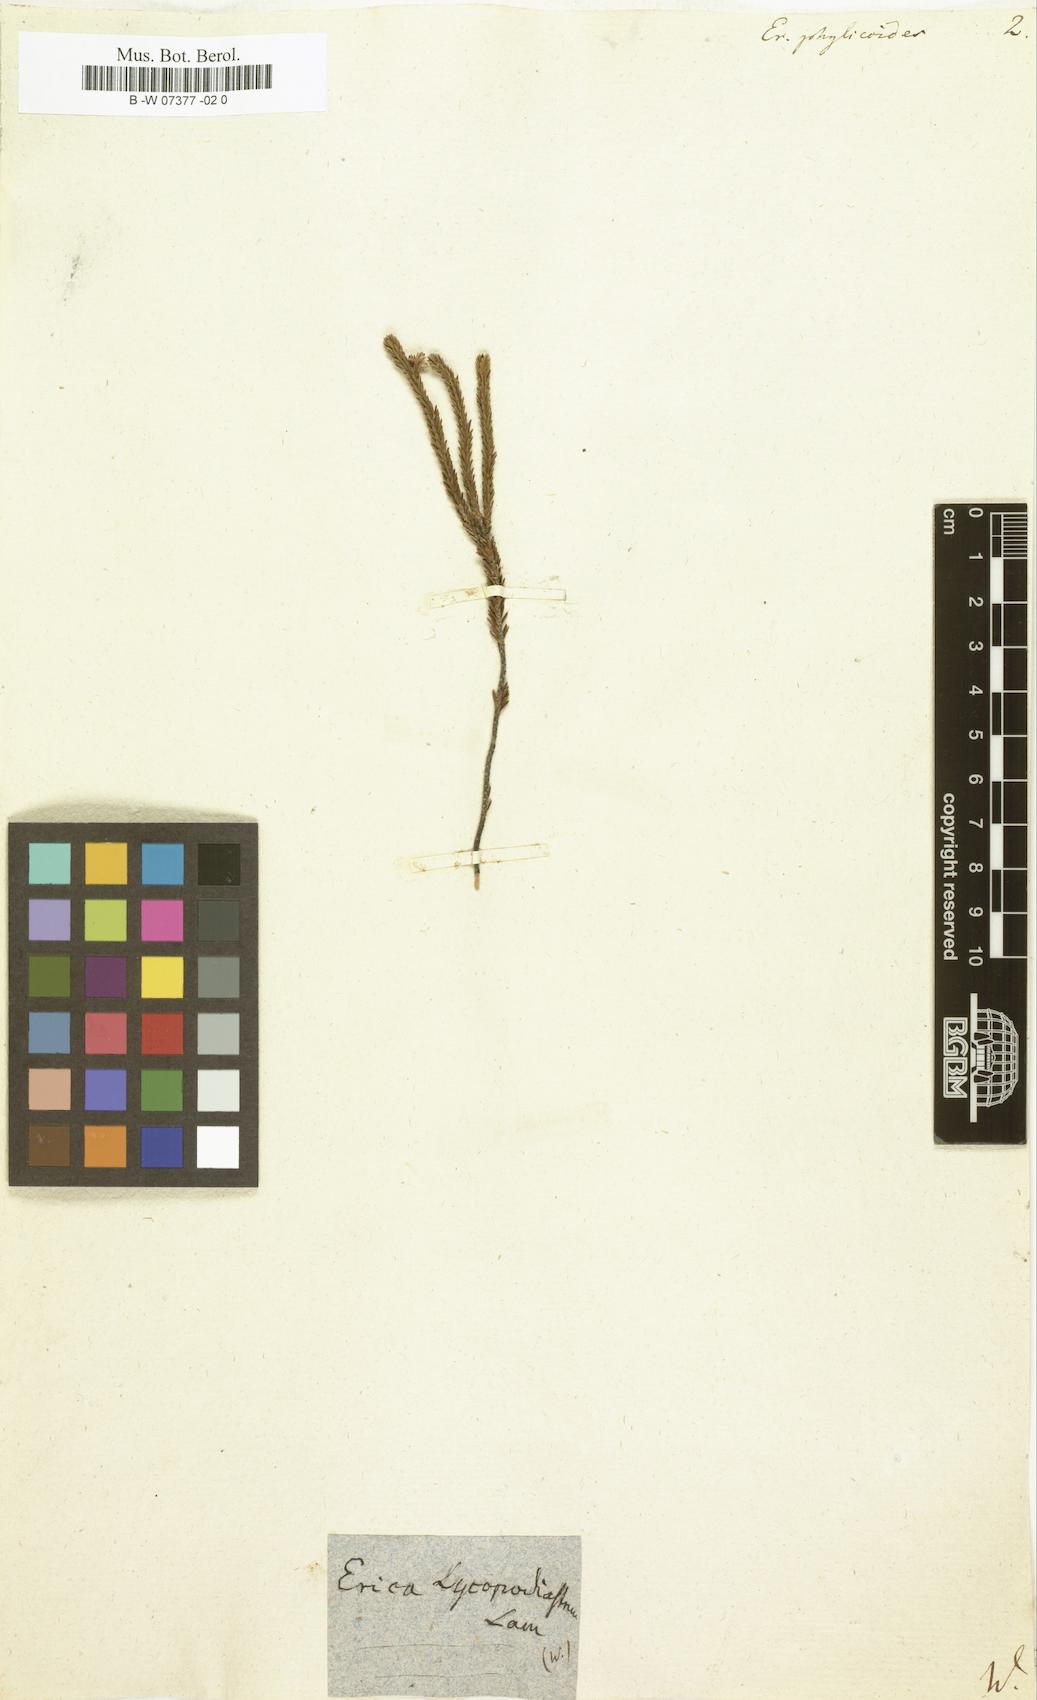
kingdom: Plantae
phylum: Tracheophyta
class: Magnoliopsida
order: Ericales
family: Ericaceae
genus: Erica
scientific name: Erica pulchella
